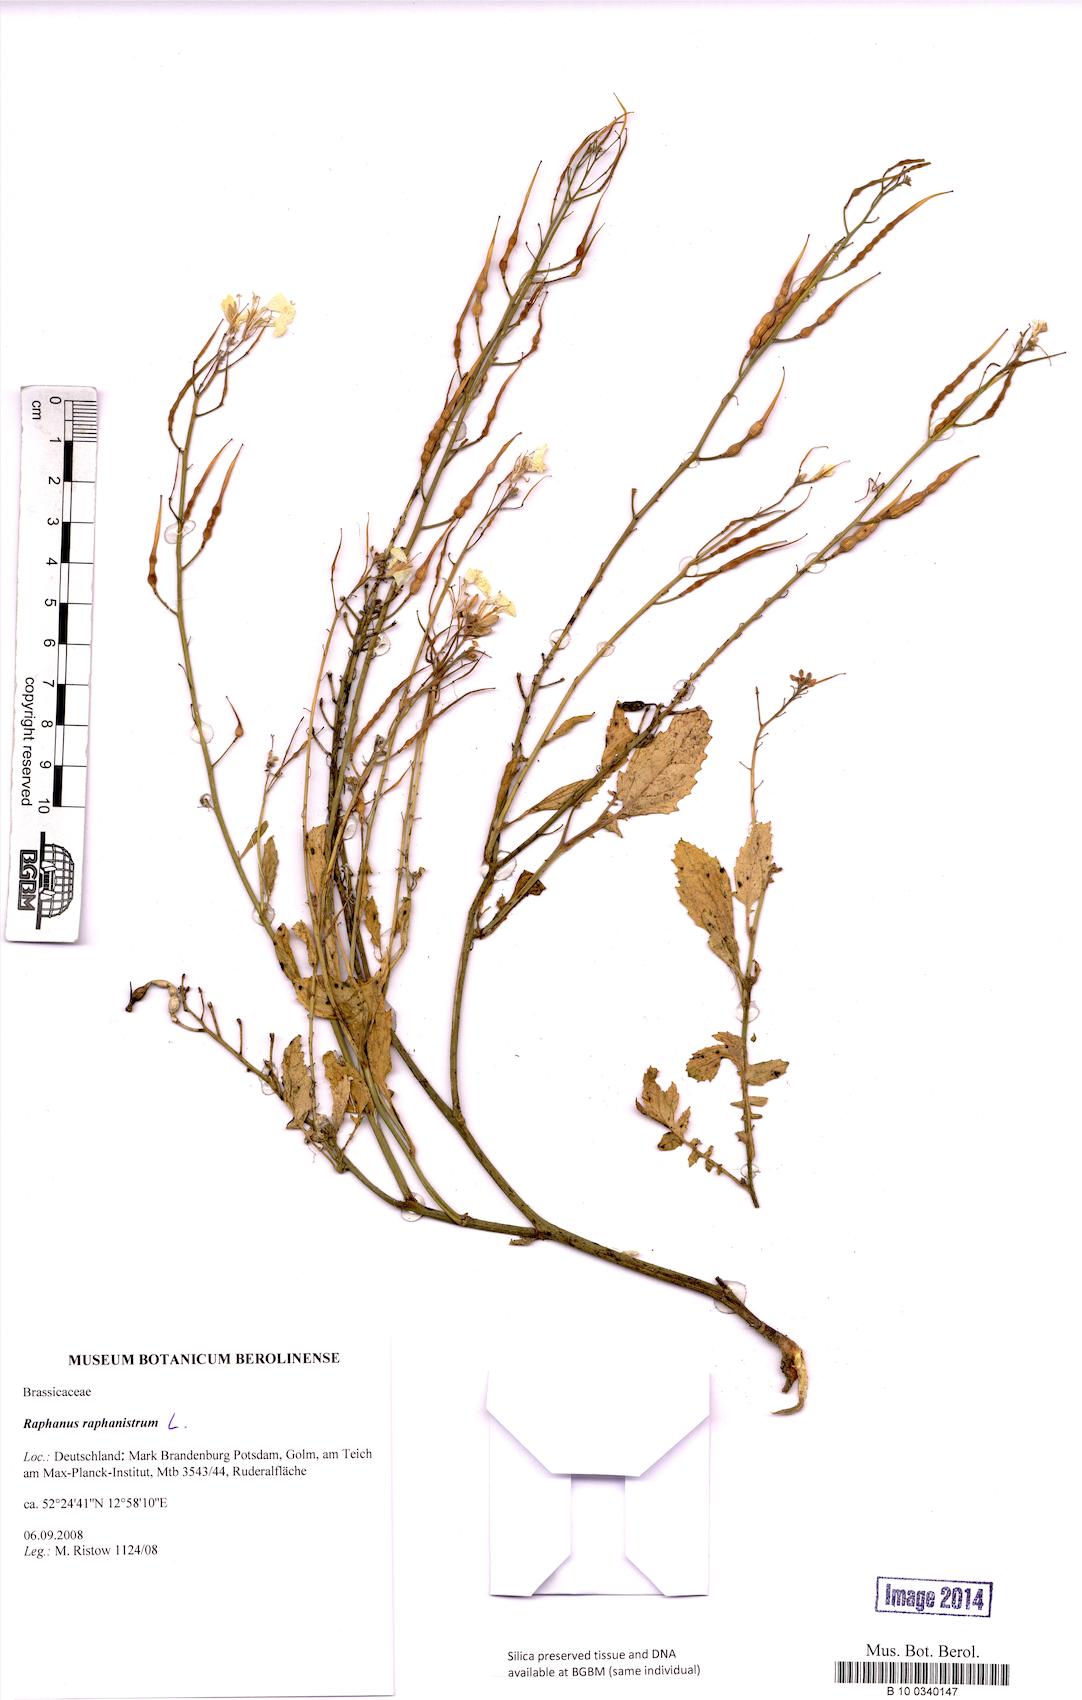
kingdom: Plantae
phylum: Tracheophyta
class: Magnoliopsida
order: Brassicales
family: Brassicaceae
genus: Raphanus
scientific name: Raphanus raphanistrum
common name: Wild radish
